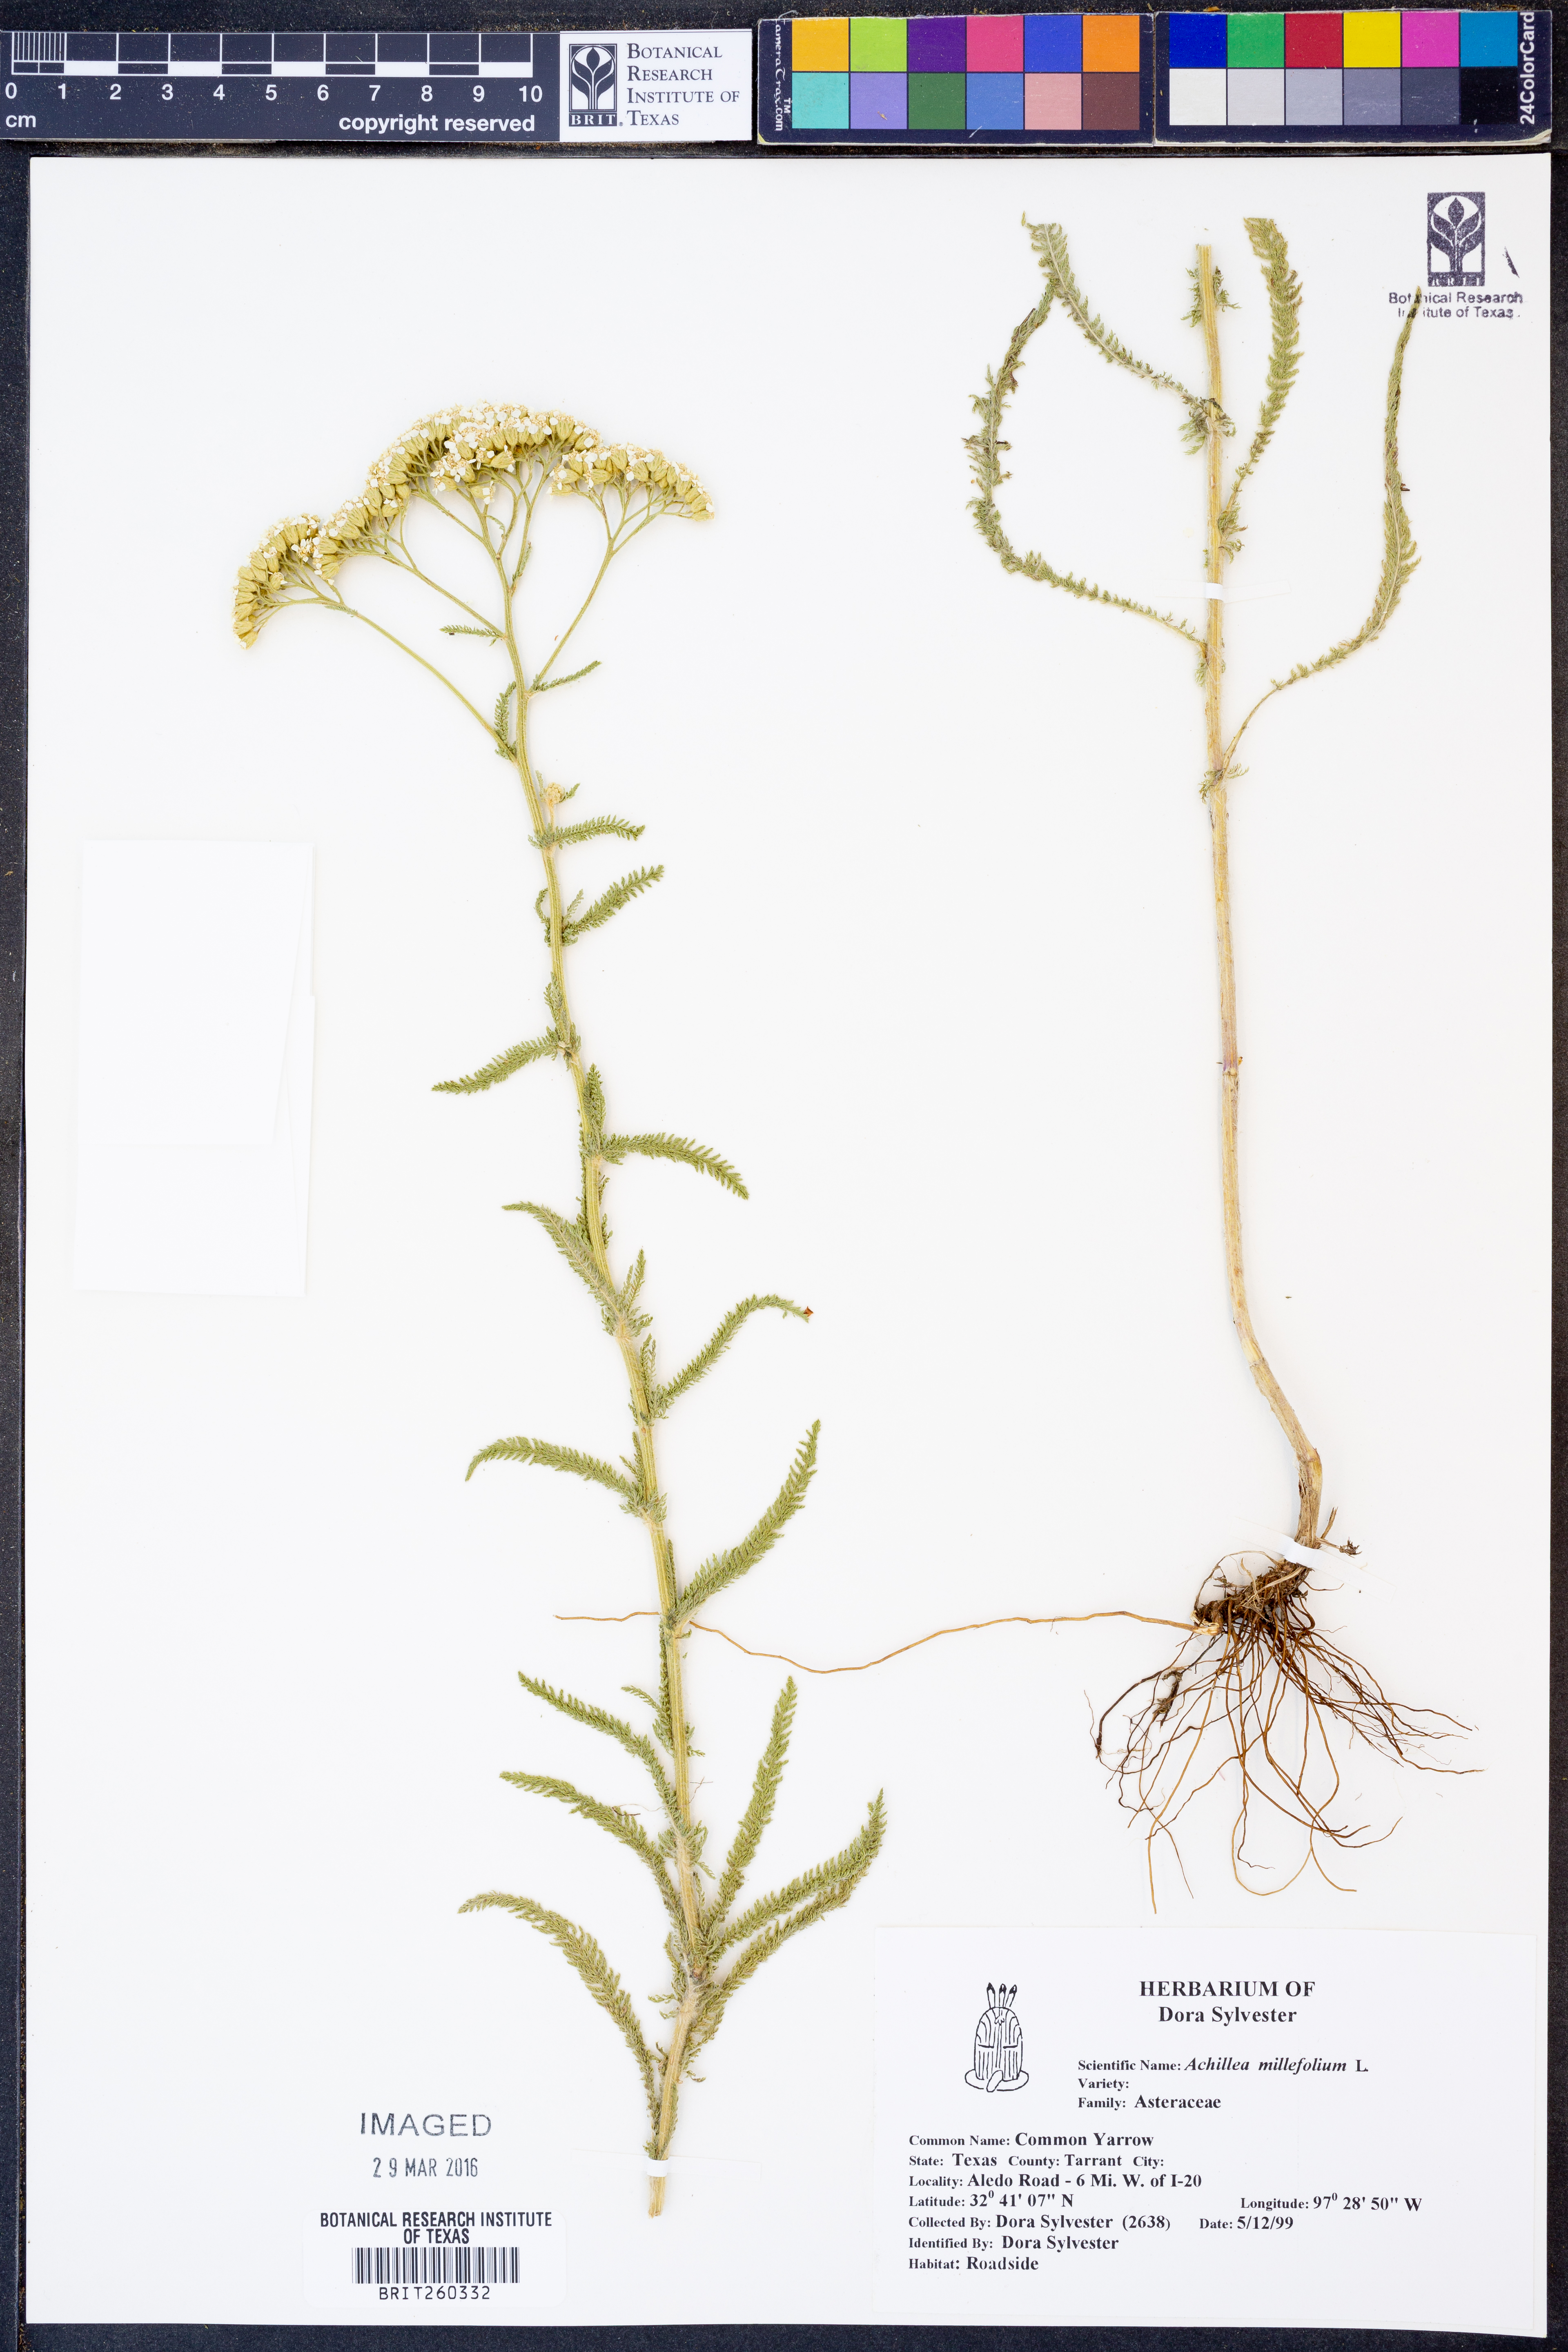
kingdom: Plantae
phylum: Tracheophyta
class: Magnoliopsida
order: Asterales
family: Asteraceae
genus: Achillea
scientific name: Achillea millefolium
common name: Yarrow
